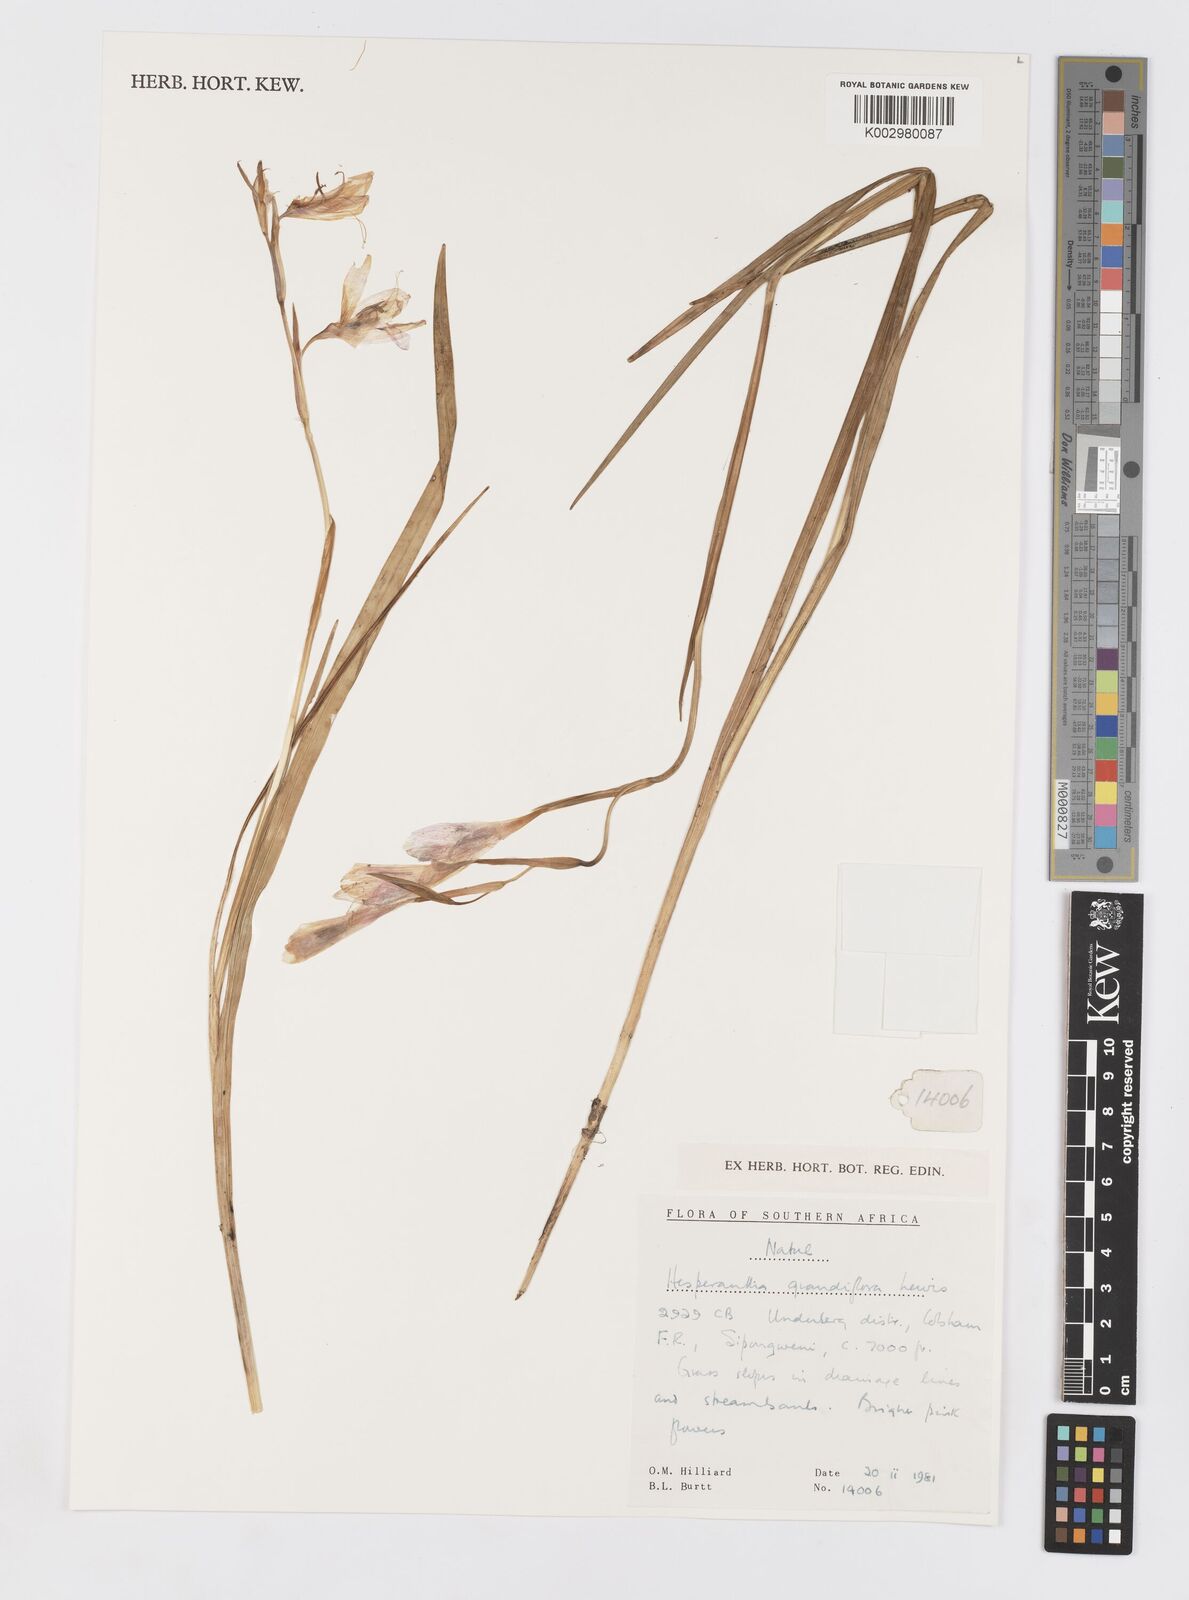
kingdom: Plantae
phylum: Tracheophyta
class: Liliopsida
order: Asparagales
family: Iridaceae
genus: Hesperantha
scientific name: Hesperantha grandiflora
